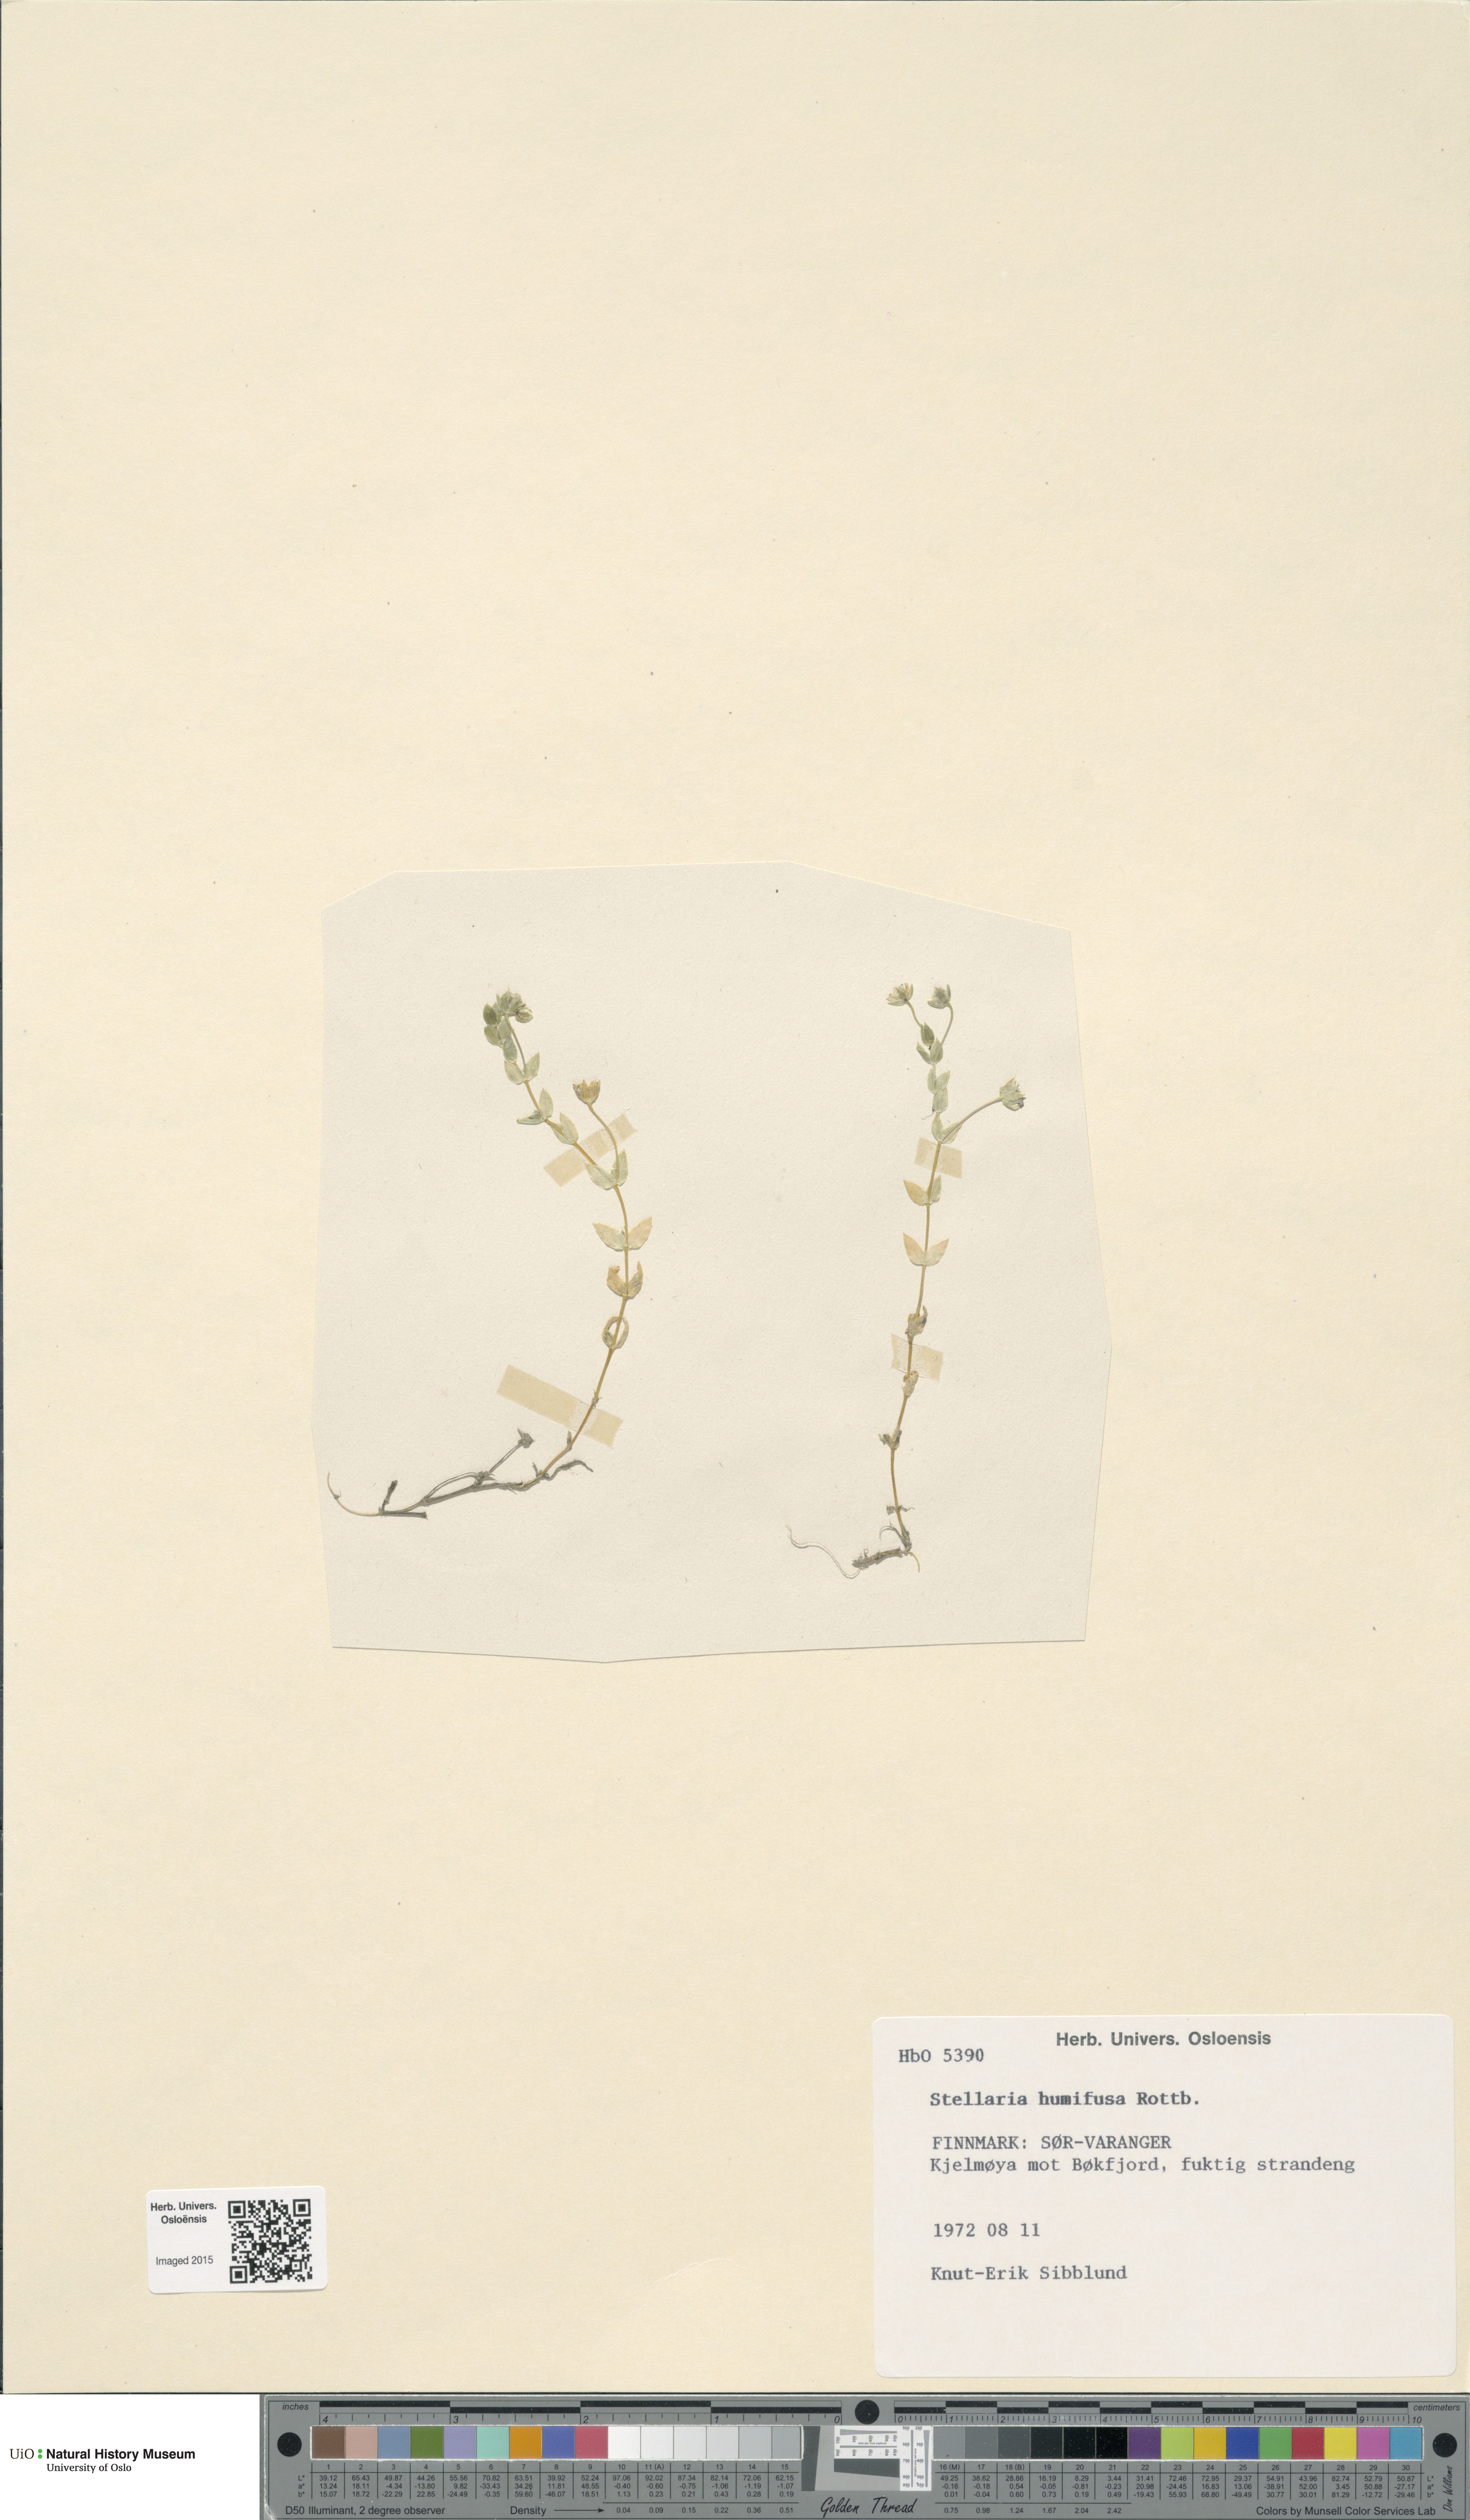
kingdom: Plantae
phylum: Tracheophyta
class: Magnoliopsida
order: Caryophyllales
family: Caryophyllaceae
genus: Stellaria
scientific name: Stellaria humifusa
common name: Creeping starwort
